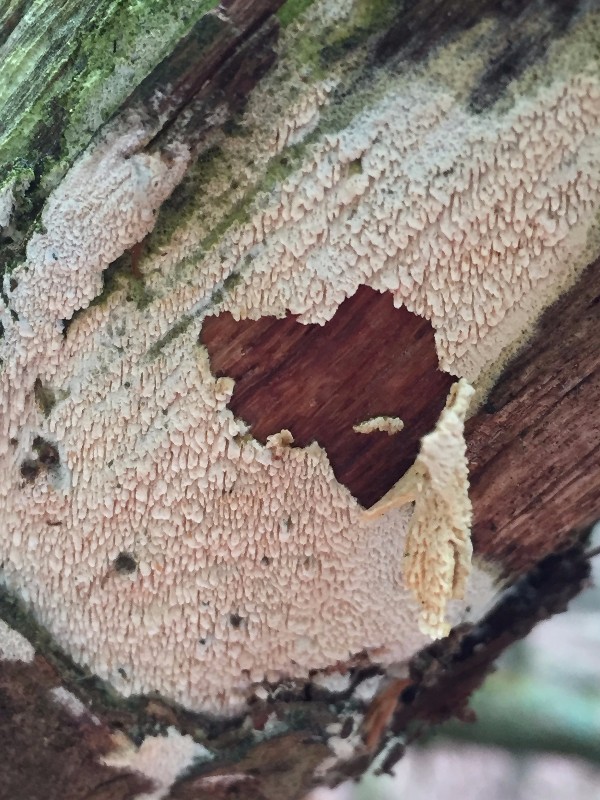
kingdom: Fungi
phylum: Basidiomycota
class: Agaricomycetes
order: Hymenochaetales
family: Schizoporaceae
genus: Schizopora
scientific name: Schizopora paradoxa
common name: hvid tandsvamp
